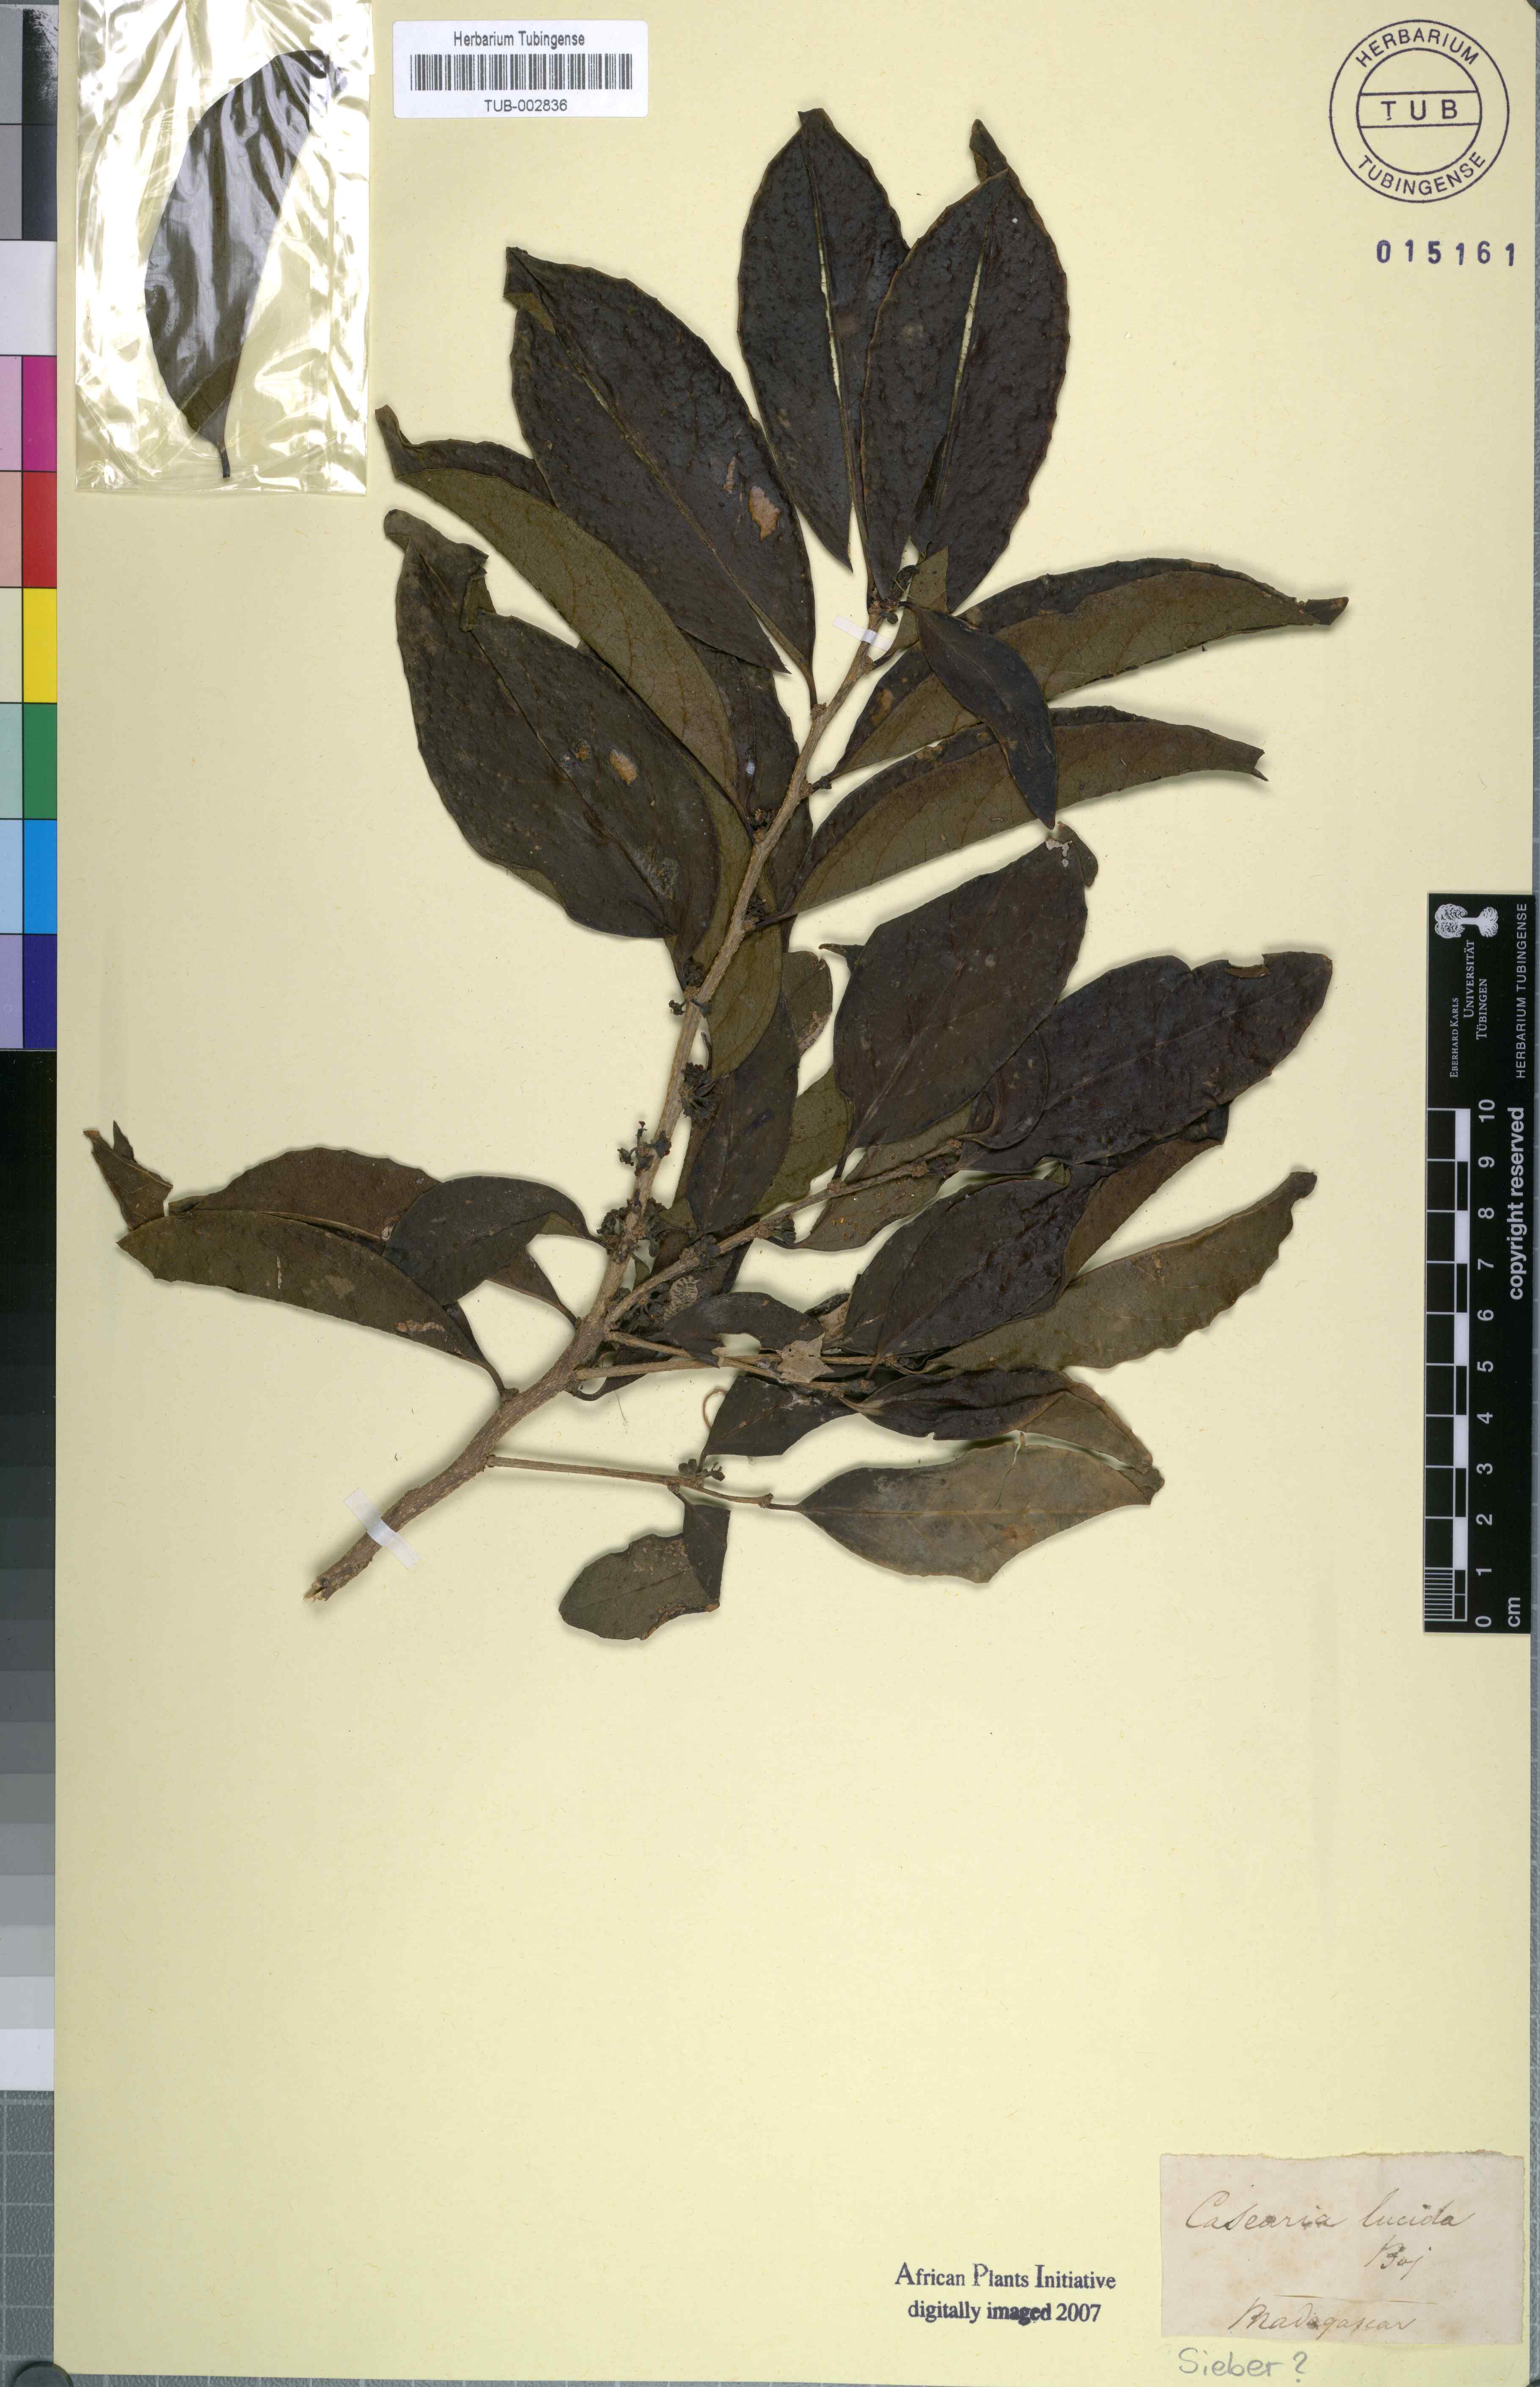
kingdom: Plantae
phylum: Tracheophyta
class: Magnoliopsida
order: Malpighiales
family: Salicaceae
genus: Casearia
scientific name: Casearia nigrescens
